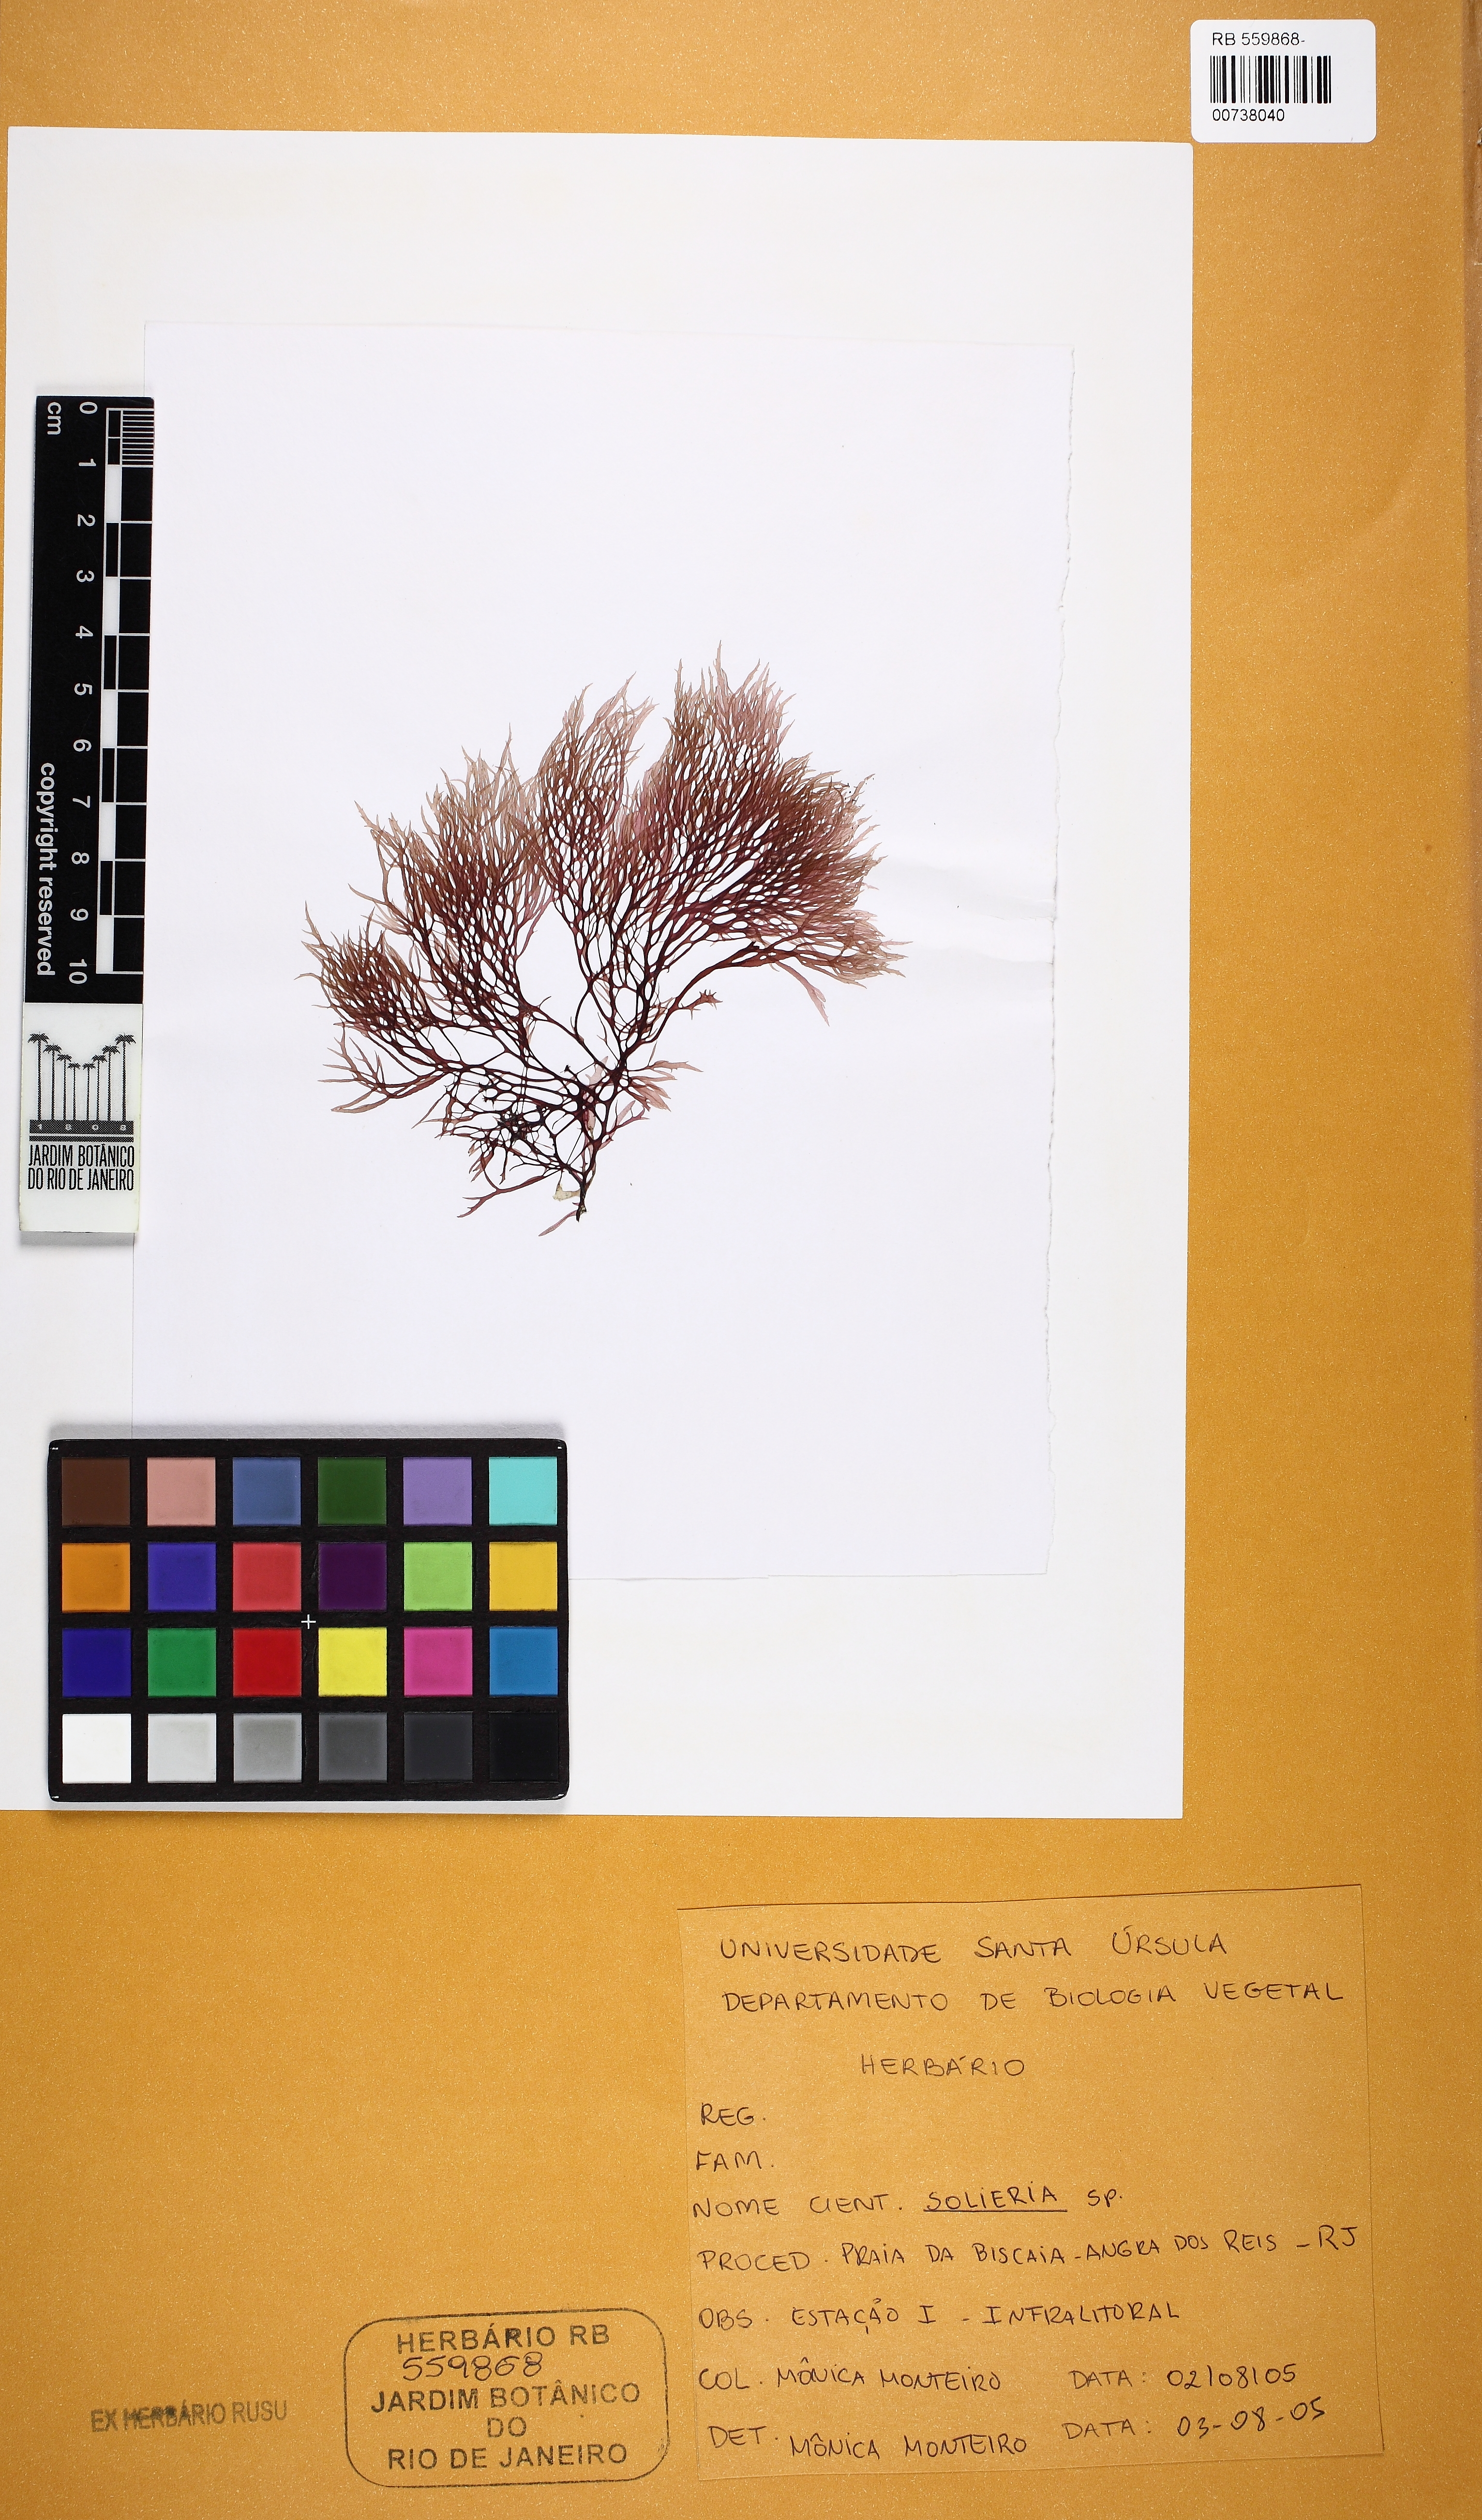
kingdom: Plantae
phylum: Rhodophyta
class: Florideophyceae
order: Gigartinales
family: Solieriaceae
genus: Solieria
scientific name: Solieria
